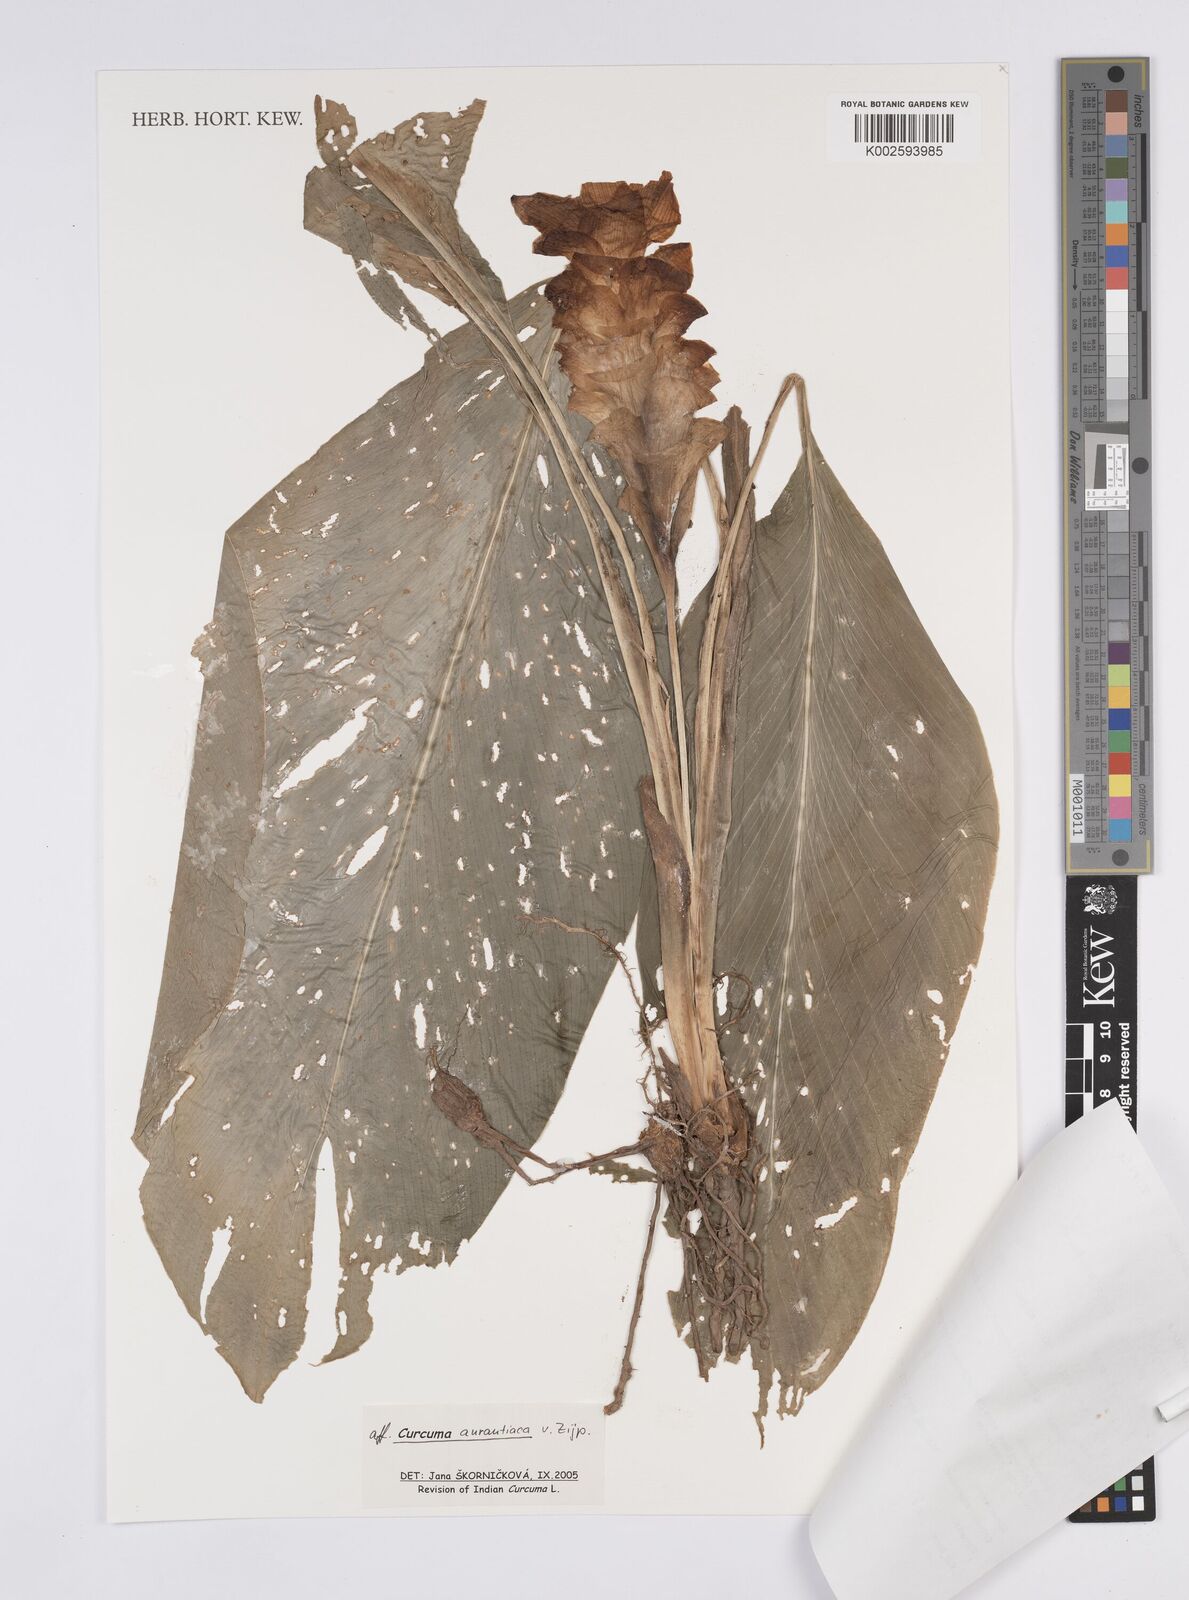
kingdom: Plantae
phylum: Tracheophyta
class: Liliopsida
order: Zingiberales
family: Zingiberaceae
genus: Curcuma
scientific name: Curcuma
